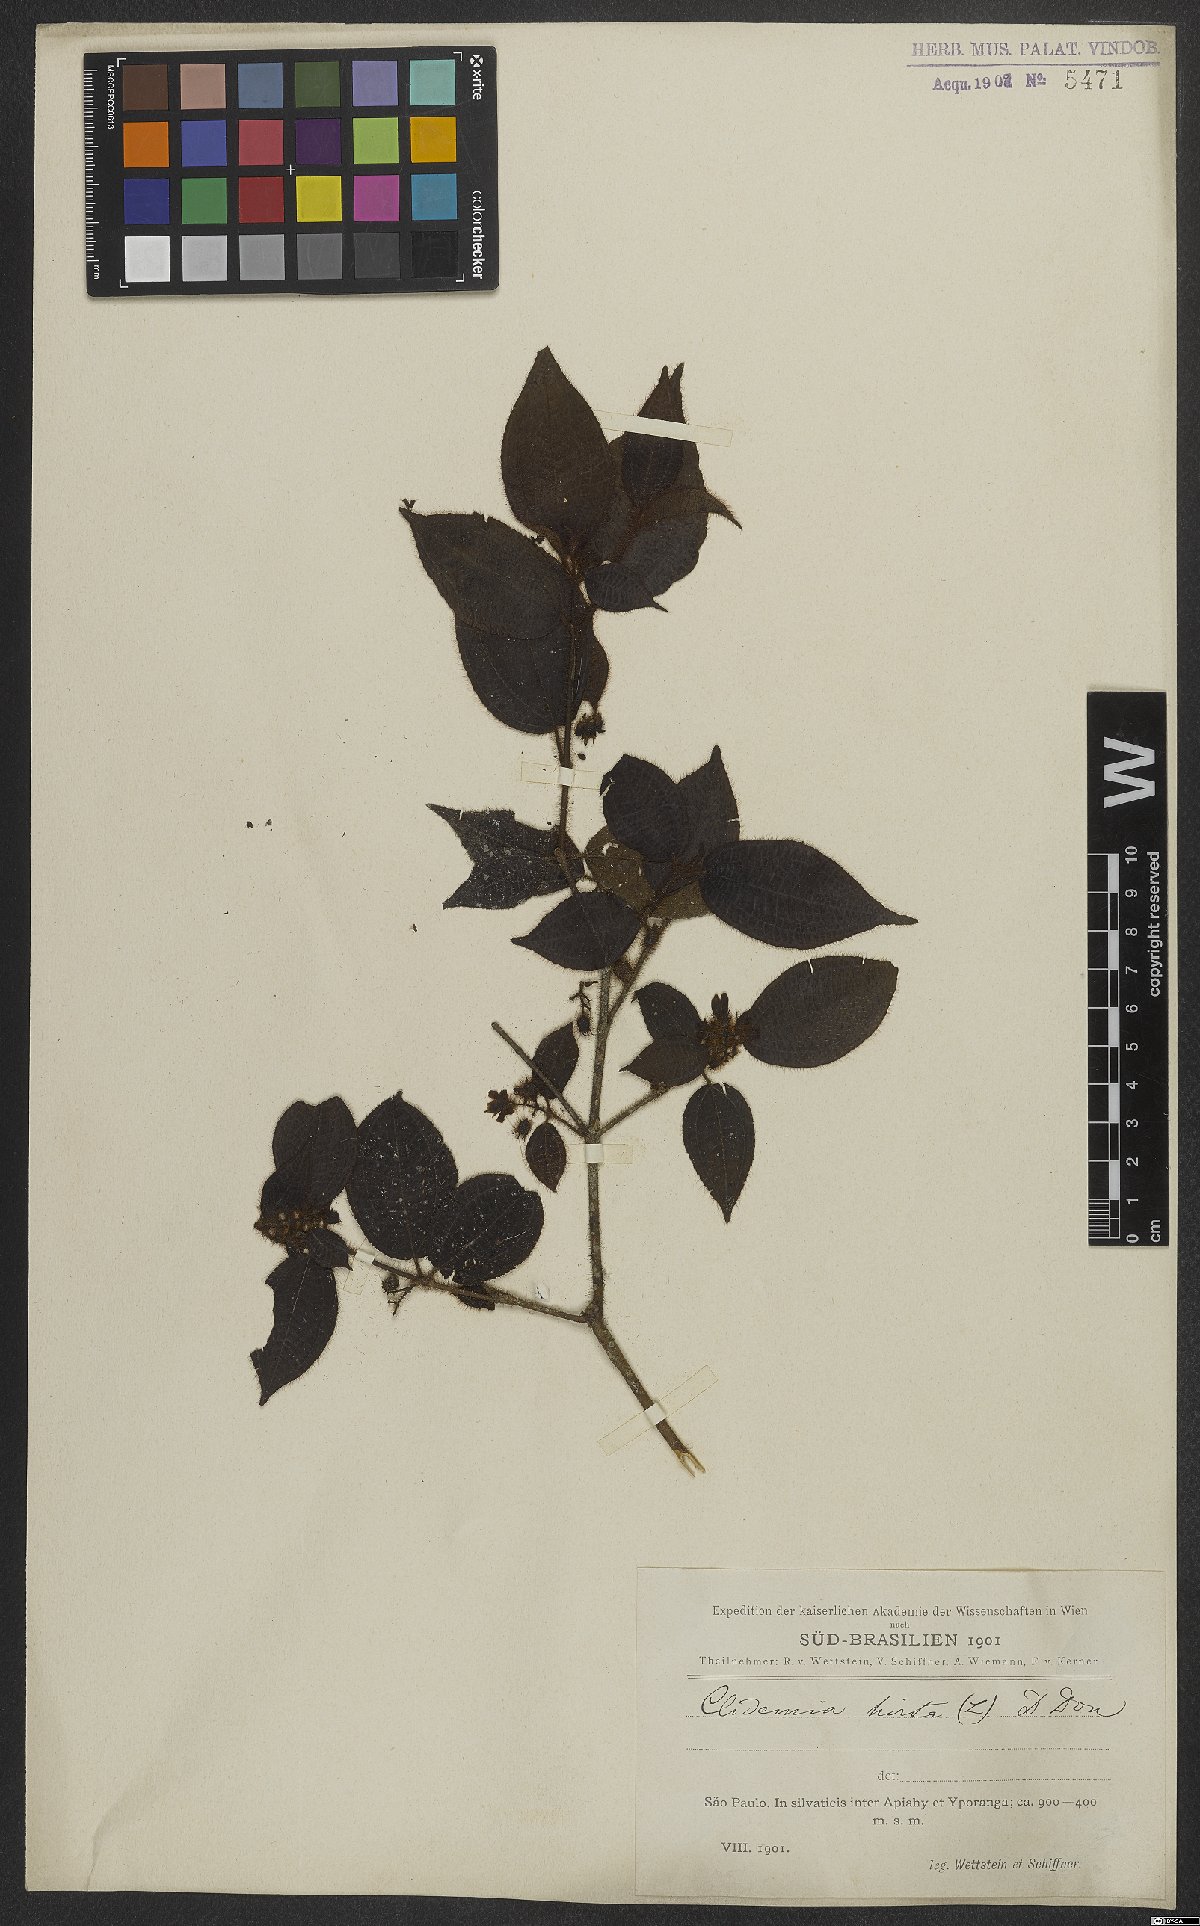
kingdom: Plantae
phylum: Tracheophyta
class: Magnoliopsida
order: Myrtales
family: Melastomataceae
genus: Miconia
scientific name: Miconia crenata
